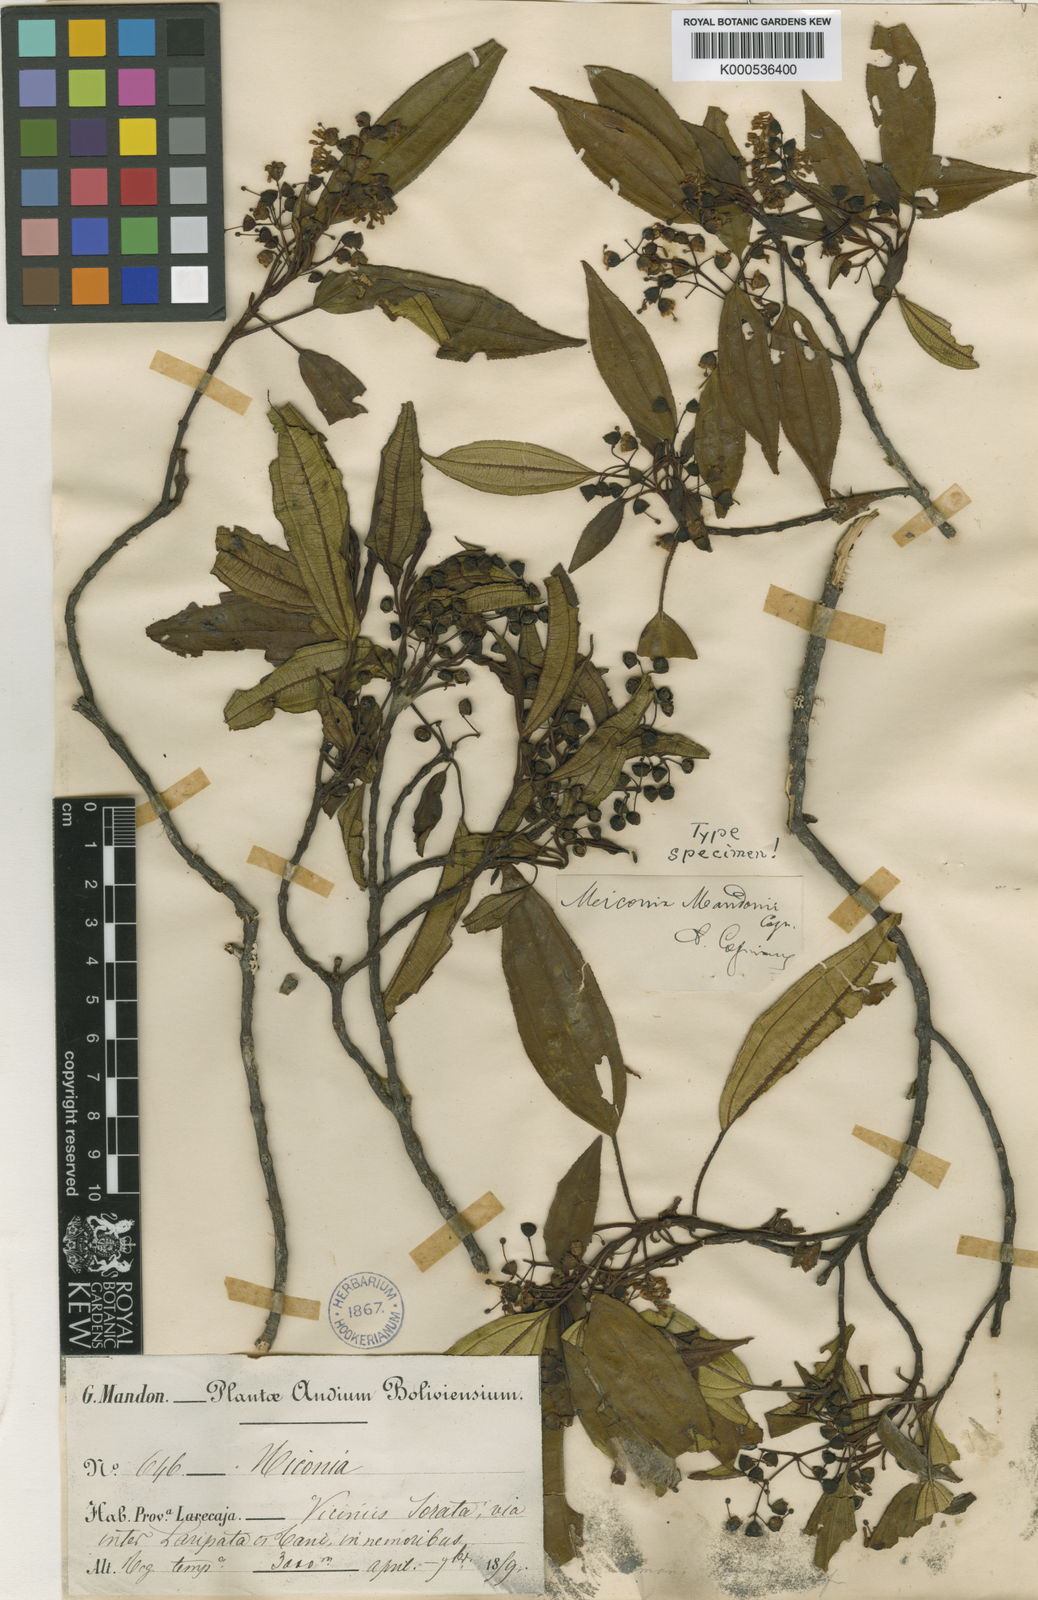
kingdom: Plantae
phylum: Tracheophyta
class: Magnoliopsida
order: Myrtales
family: Melastomataceae
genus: Miconia
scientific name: Miconia mandonii
